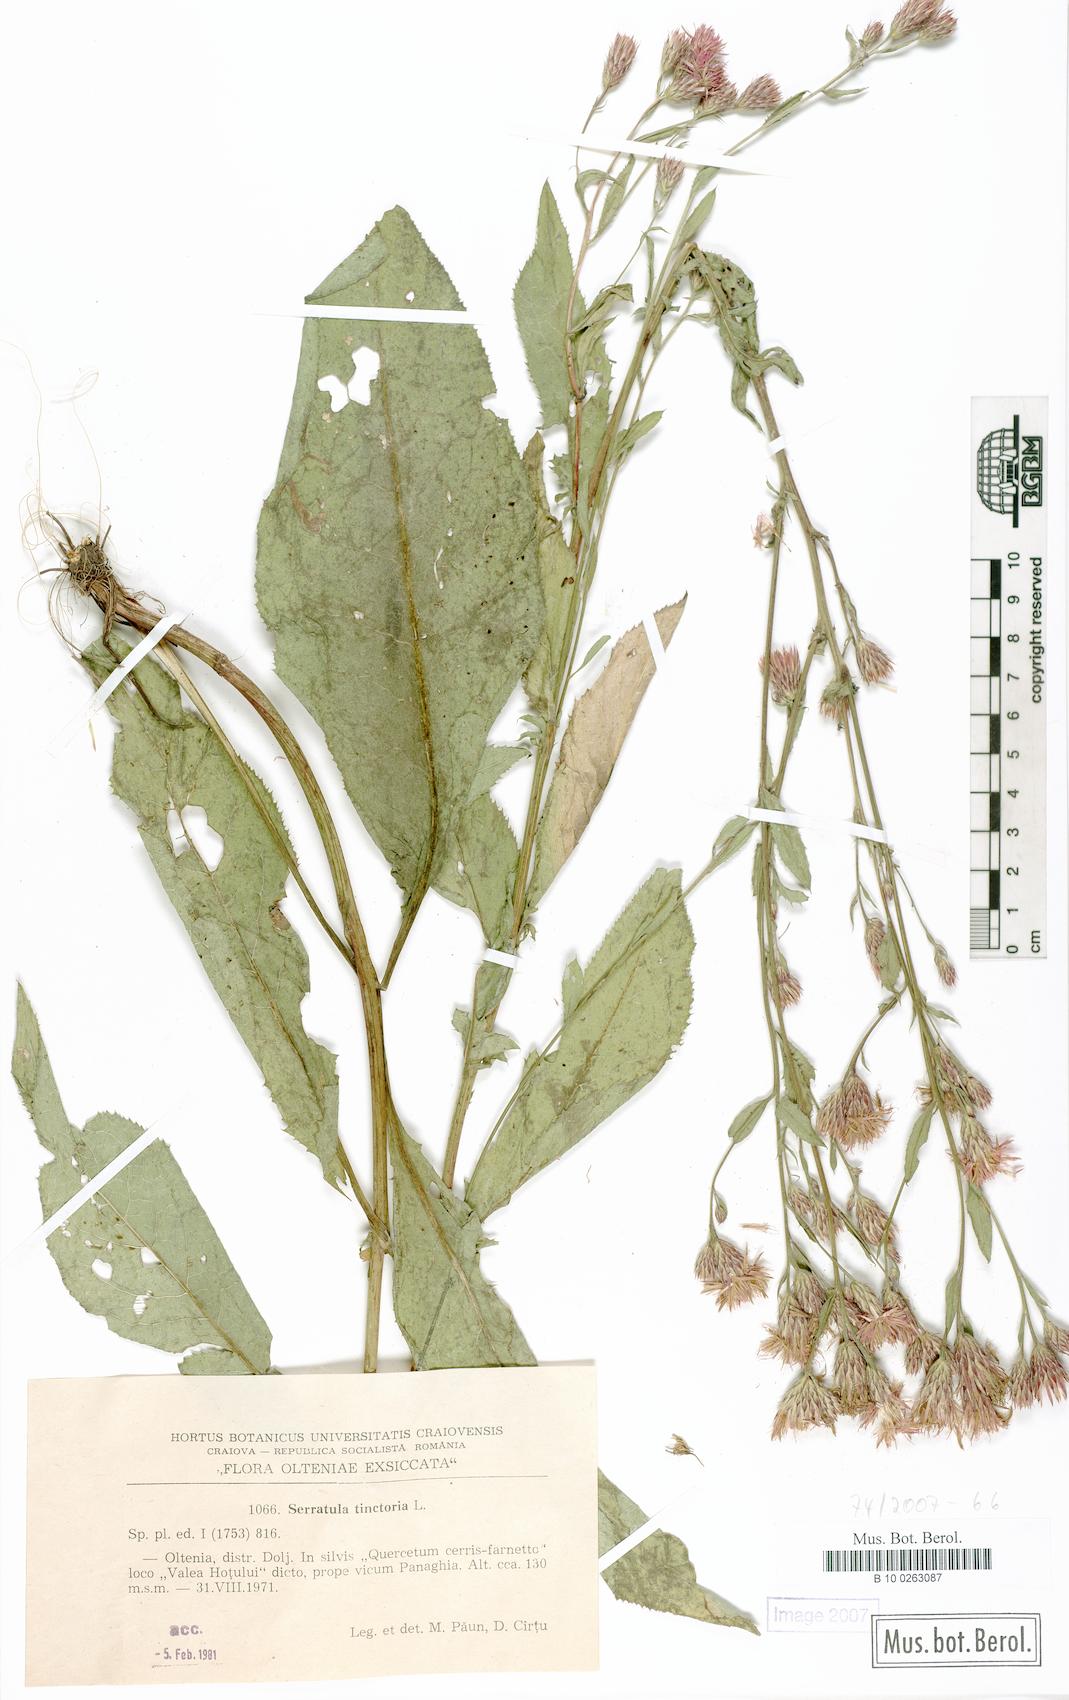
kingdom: Plantae
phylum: Tracheophyta
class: Magnoliopsida
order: Asterales
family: Asteraceae
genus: Serratula
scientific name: Serratula tinctoria
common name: Saw-wort
